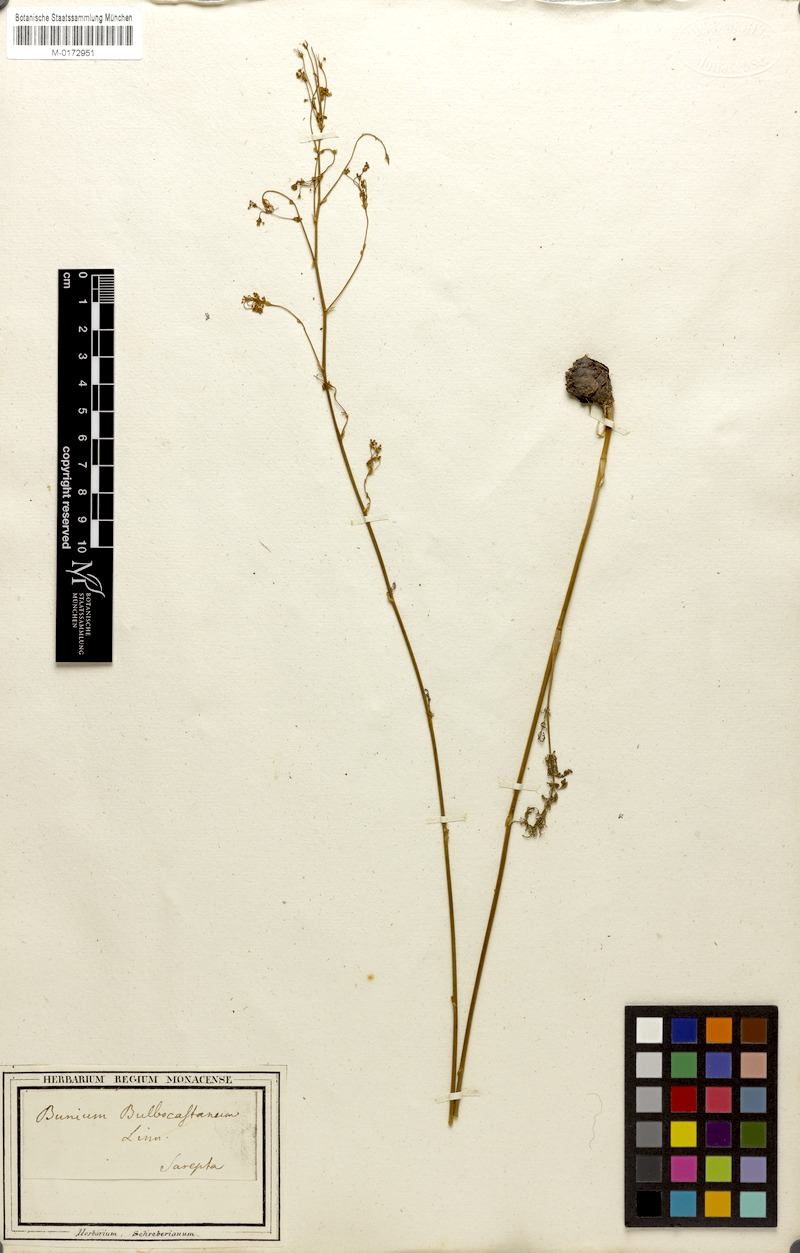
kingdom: Plantae
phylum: Tracheophyta
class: Magnoliopsida
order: Apiales
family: Apiaceae
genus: Elaeosticta
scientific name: Elaeosticta lutea
